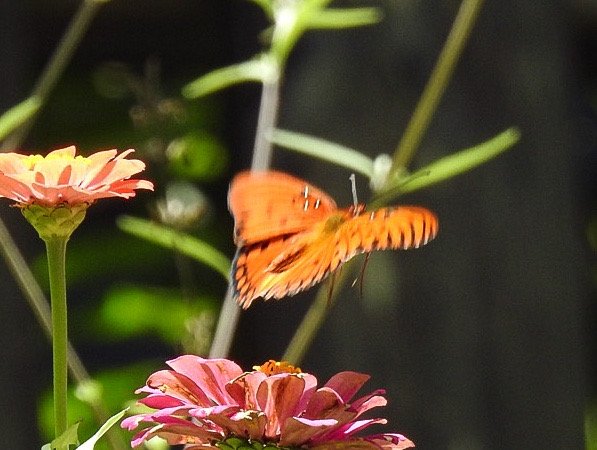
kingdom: Animalia
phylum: Arthropoda
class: Insecta
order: Lepidoptera
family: Nymphalidae
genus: Dione
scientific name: Dione vanillae
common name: Gulf Fritillary
